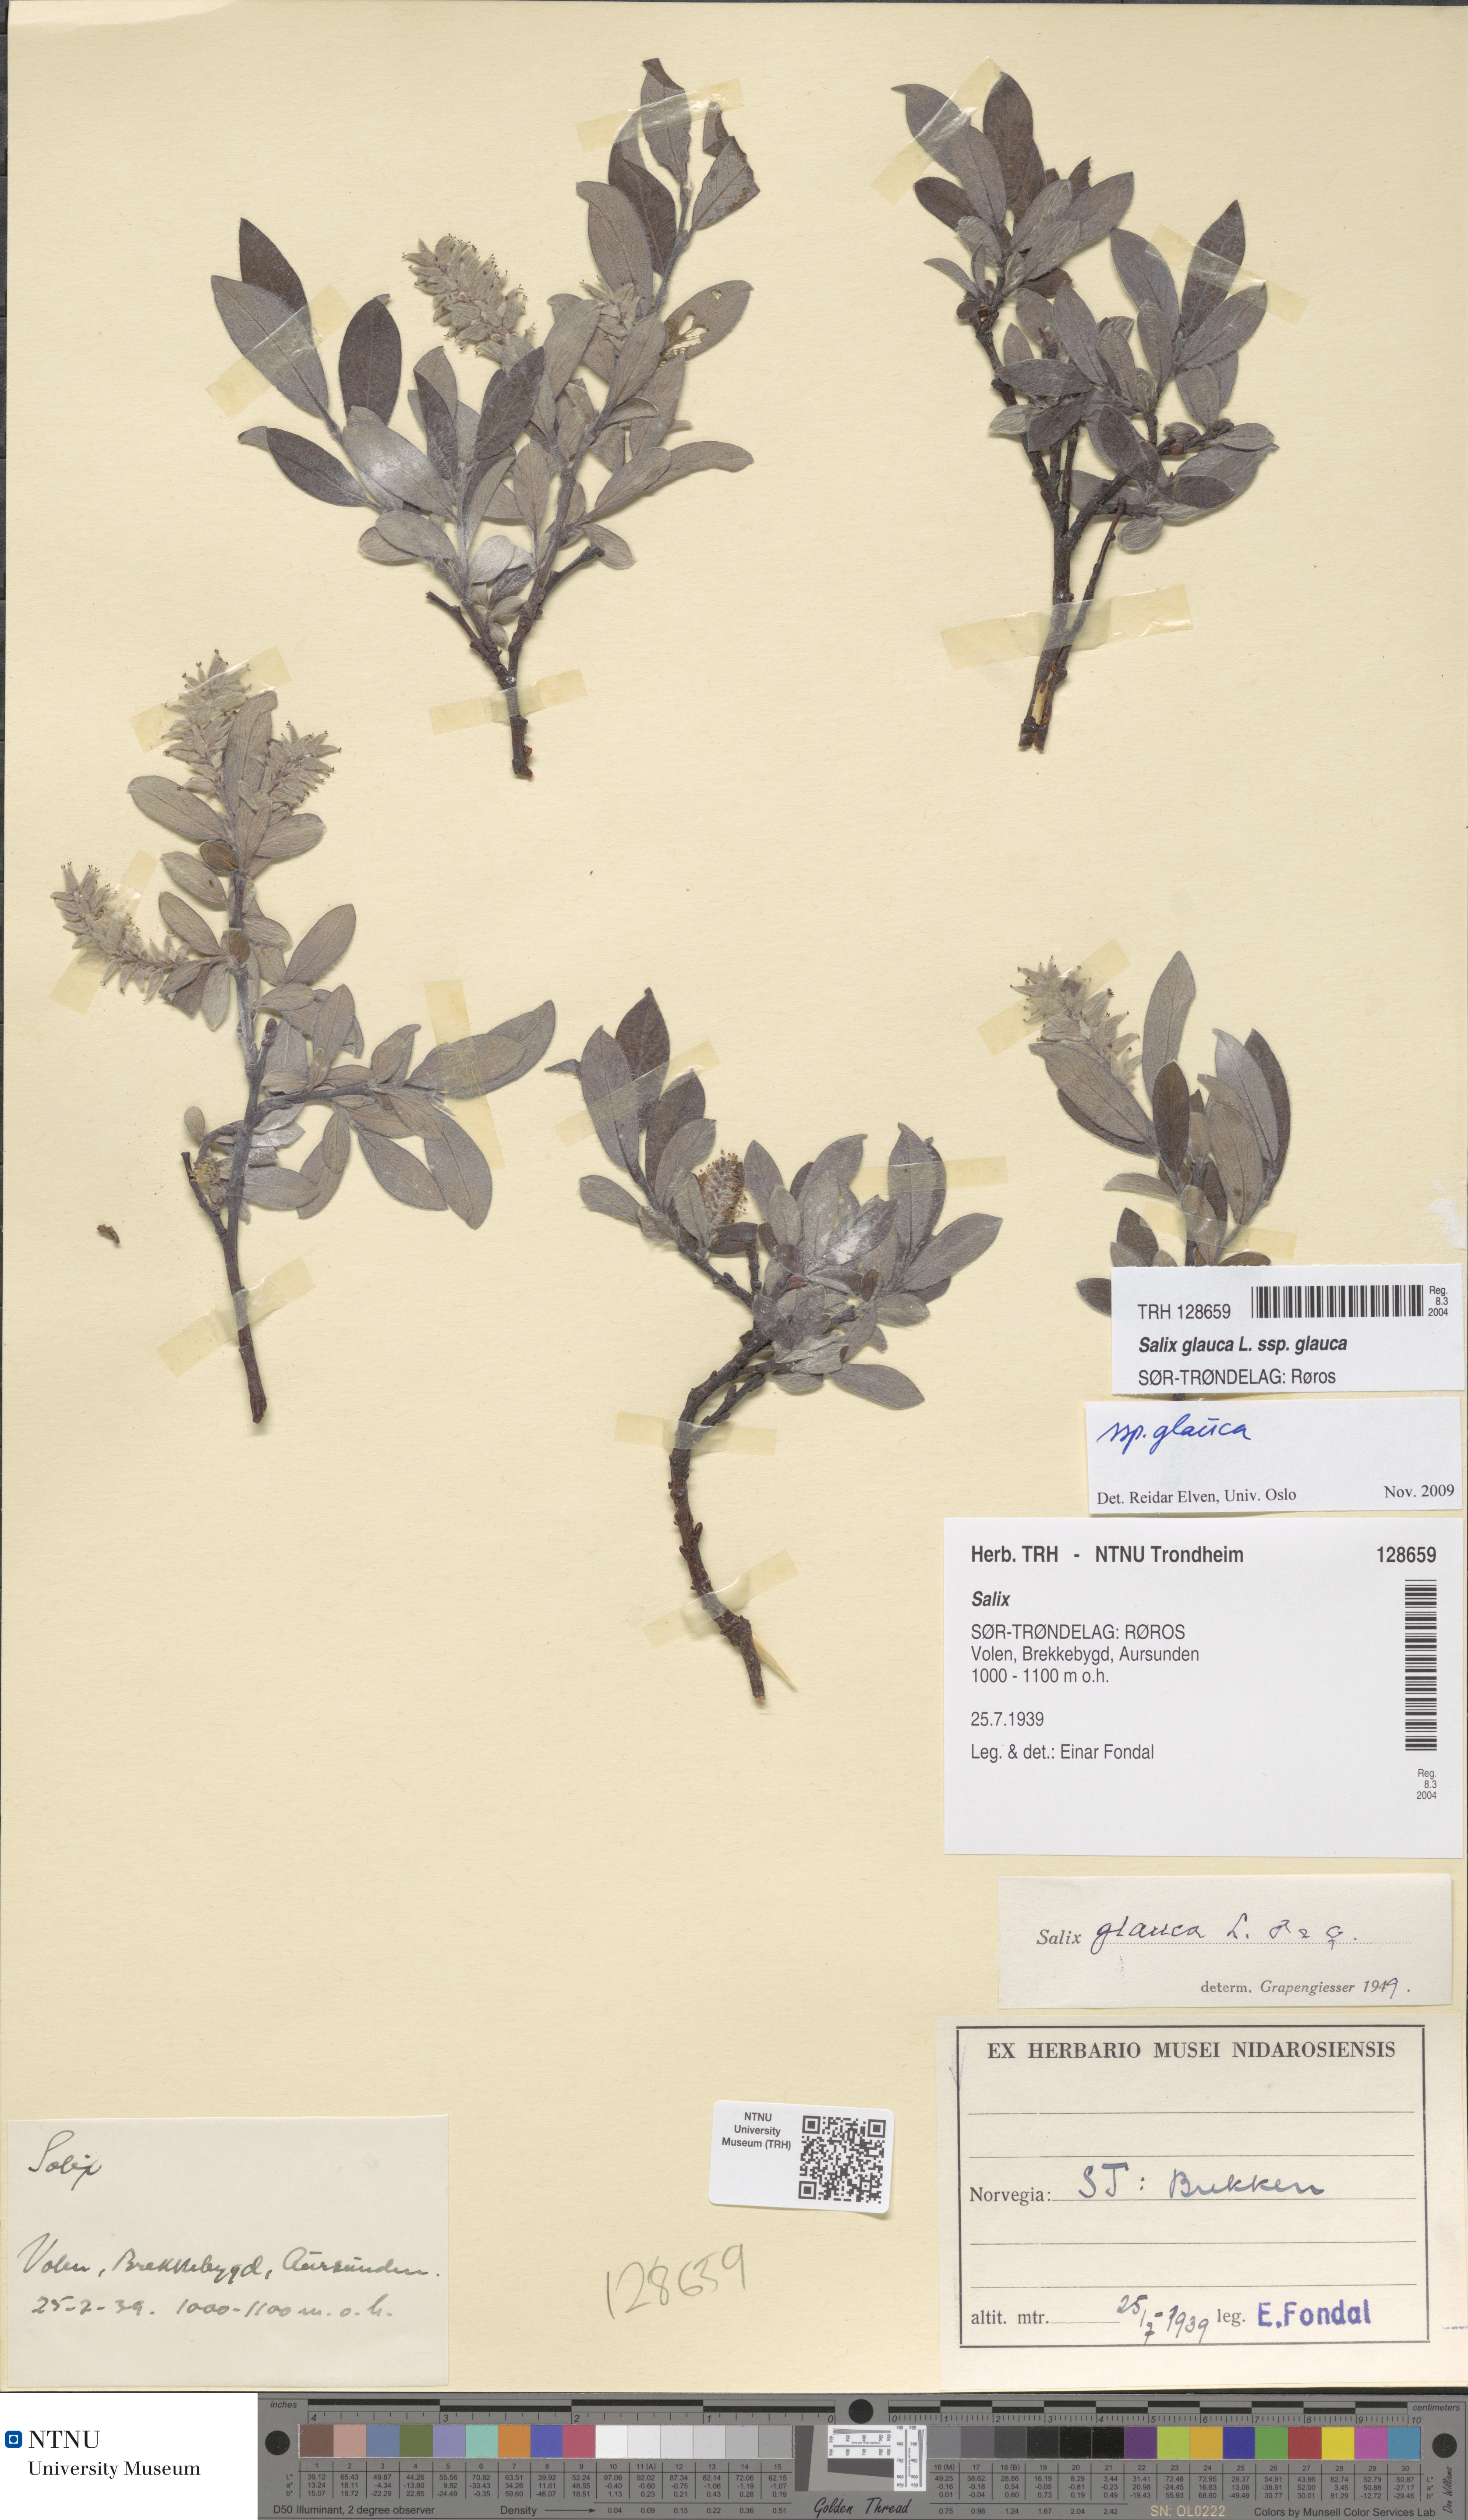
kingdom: Plantae
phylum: Tracheophyta
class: Magnoliopsida
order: Malpighiales
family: Salicaceae
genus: Salix
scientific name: Salix glauca
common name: Glaucous willow
